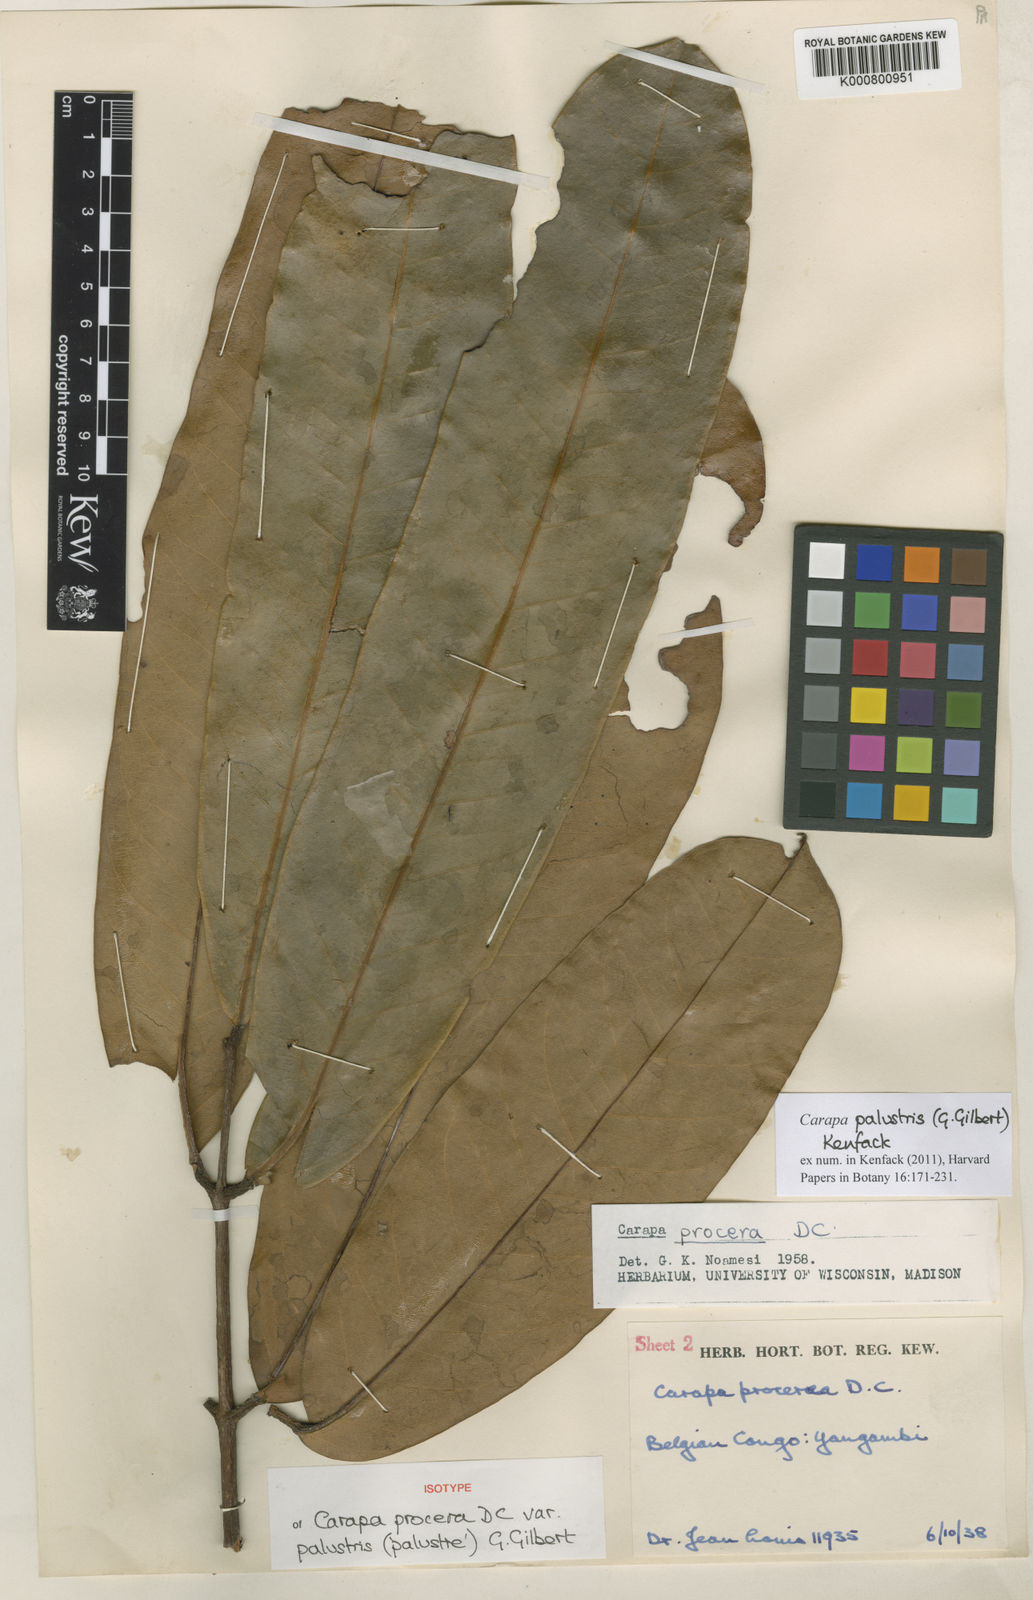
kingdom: Plantae
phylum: Tracheophyta
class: Magnoliopsida
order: Sapindales
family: Meliaceae
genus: Carapa
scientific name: Carapa hygrophila
